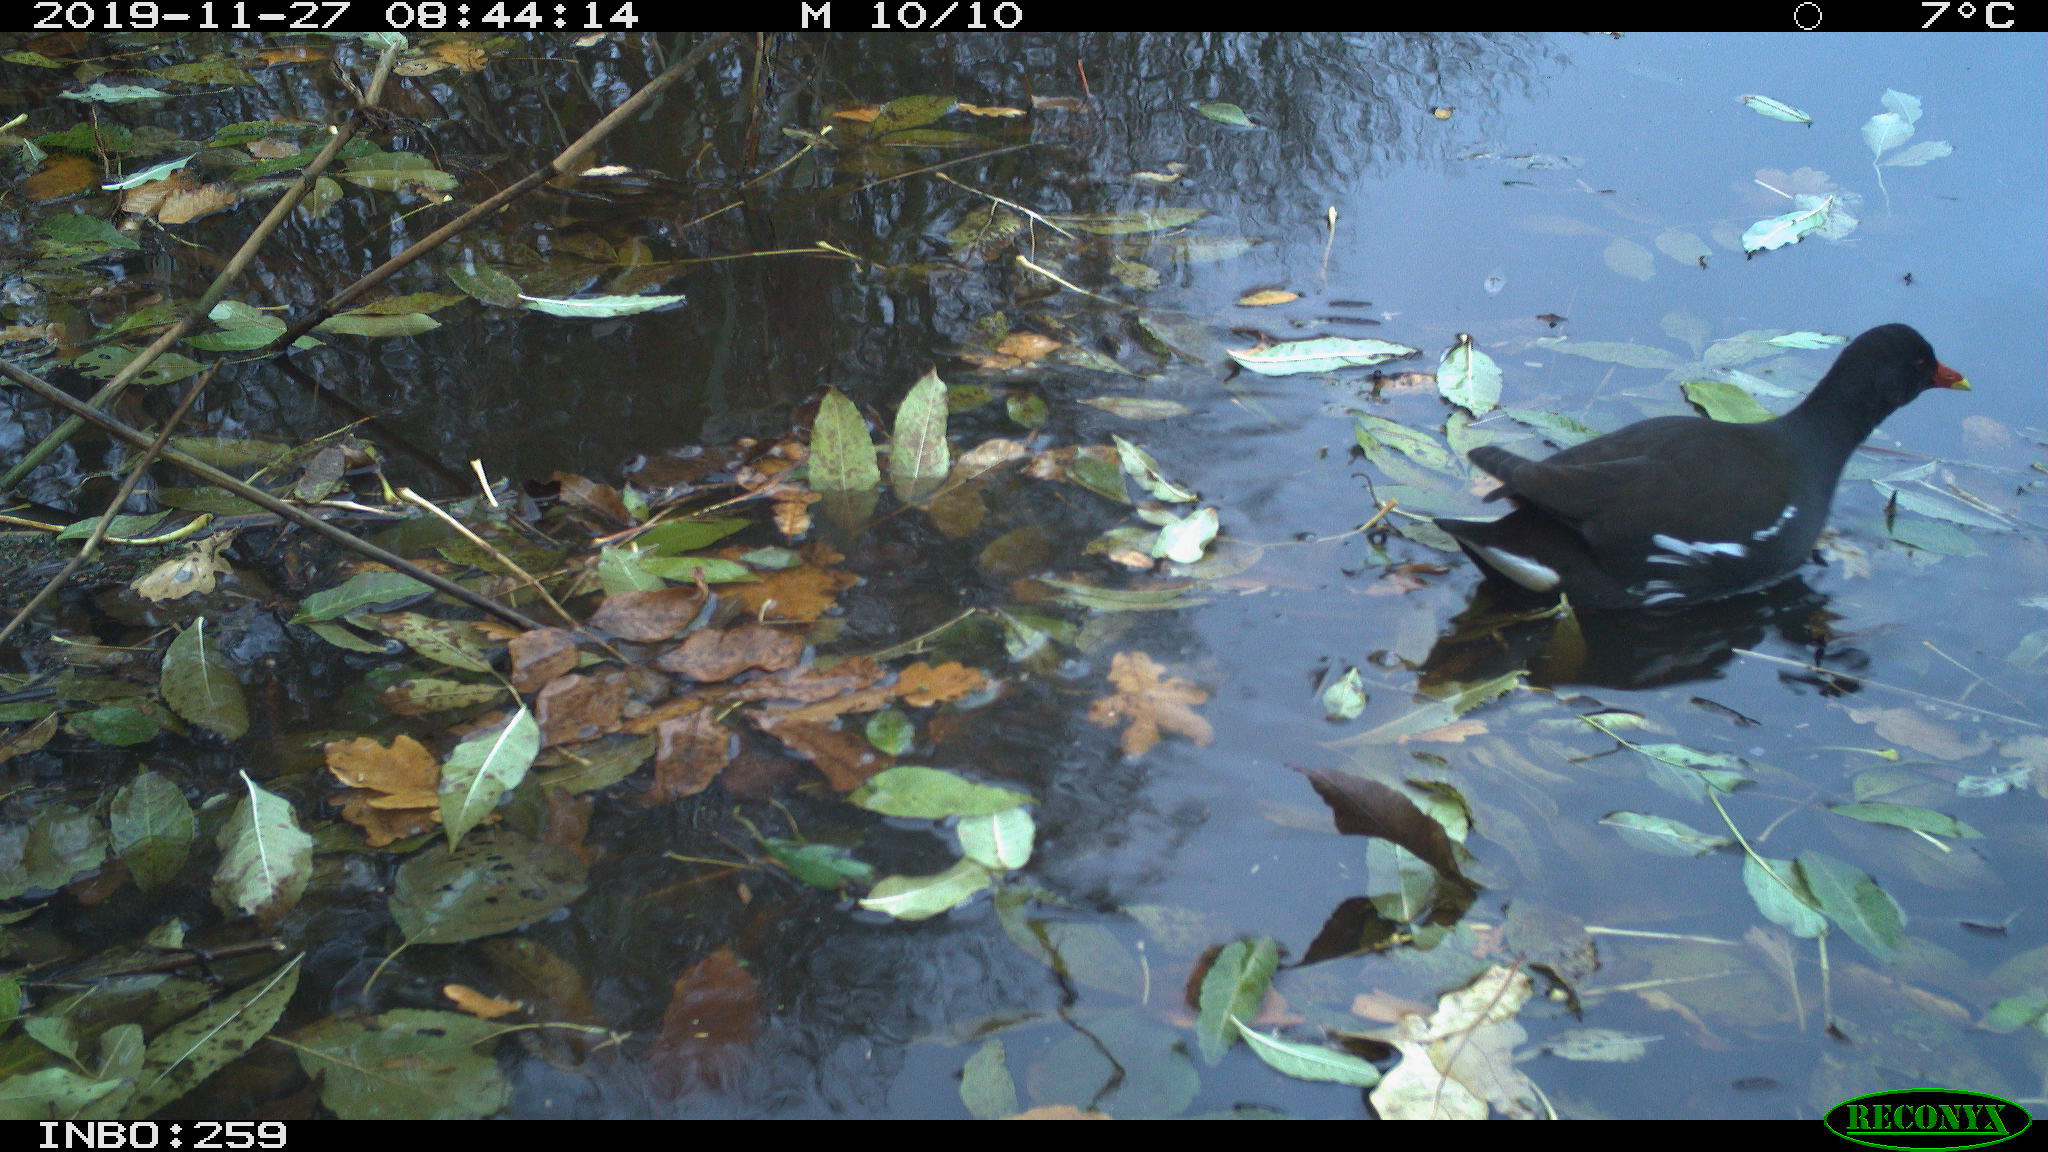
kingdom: Animalia
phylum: Chordata
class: Aves
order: Gruiformes
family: Rallidae
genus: Gallinula
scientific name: Gallinula chloropus
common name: Common moorhen
